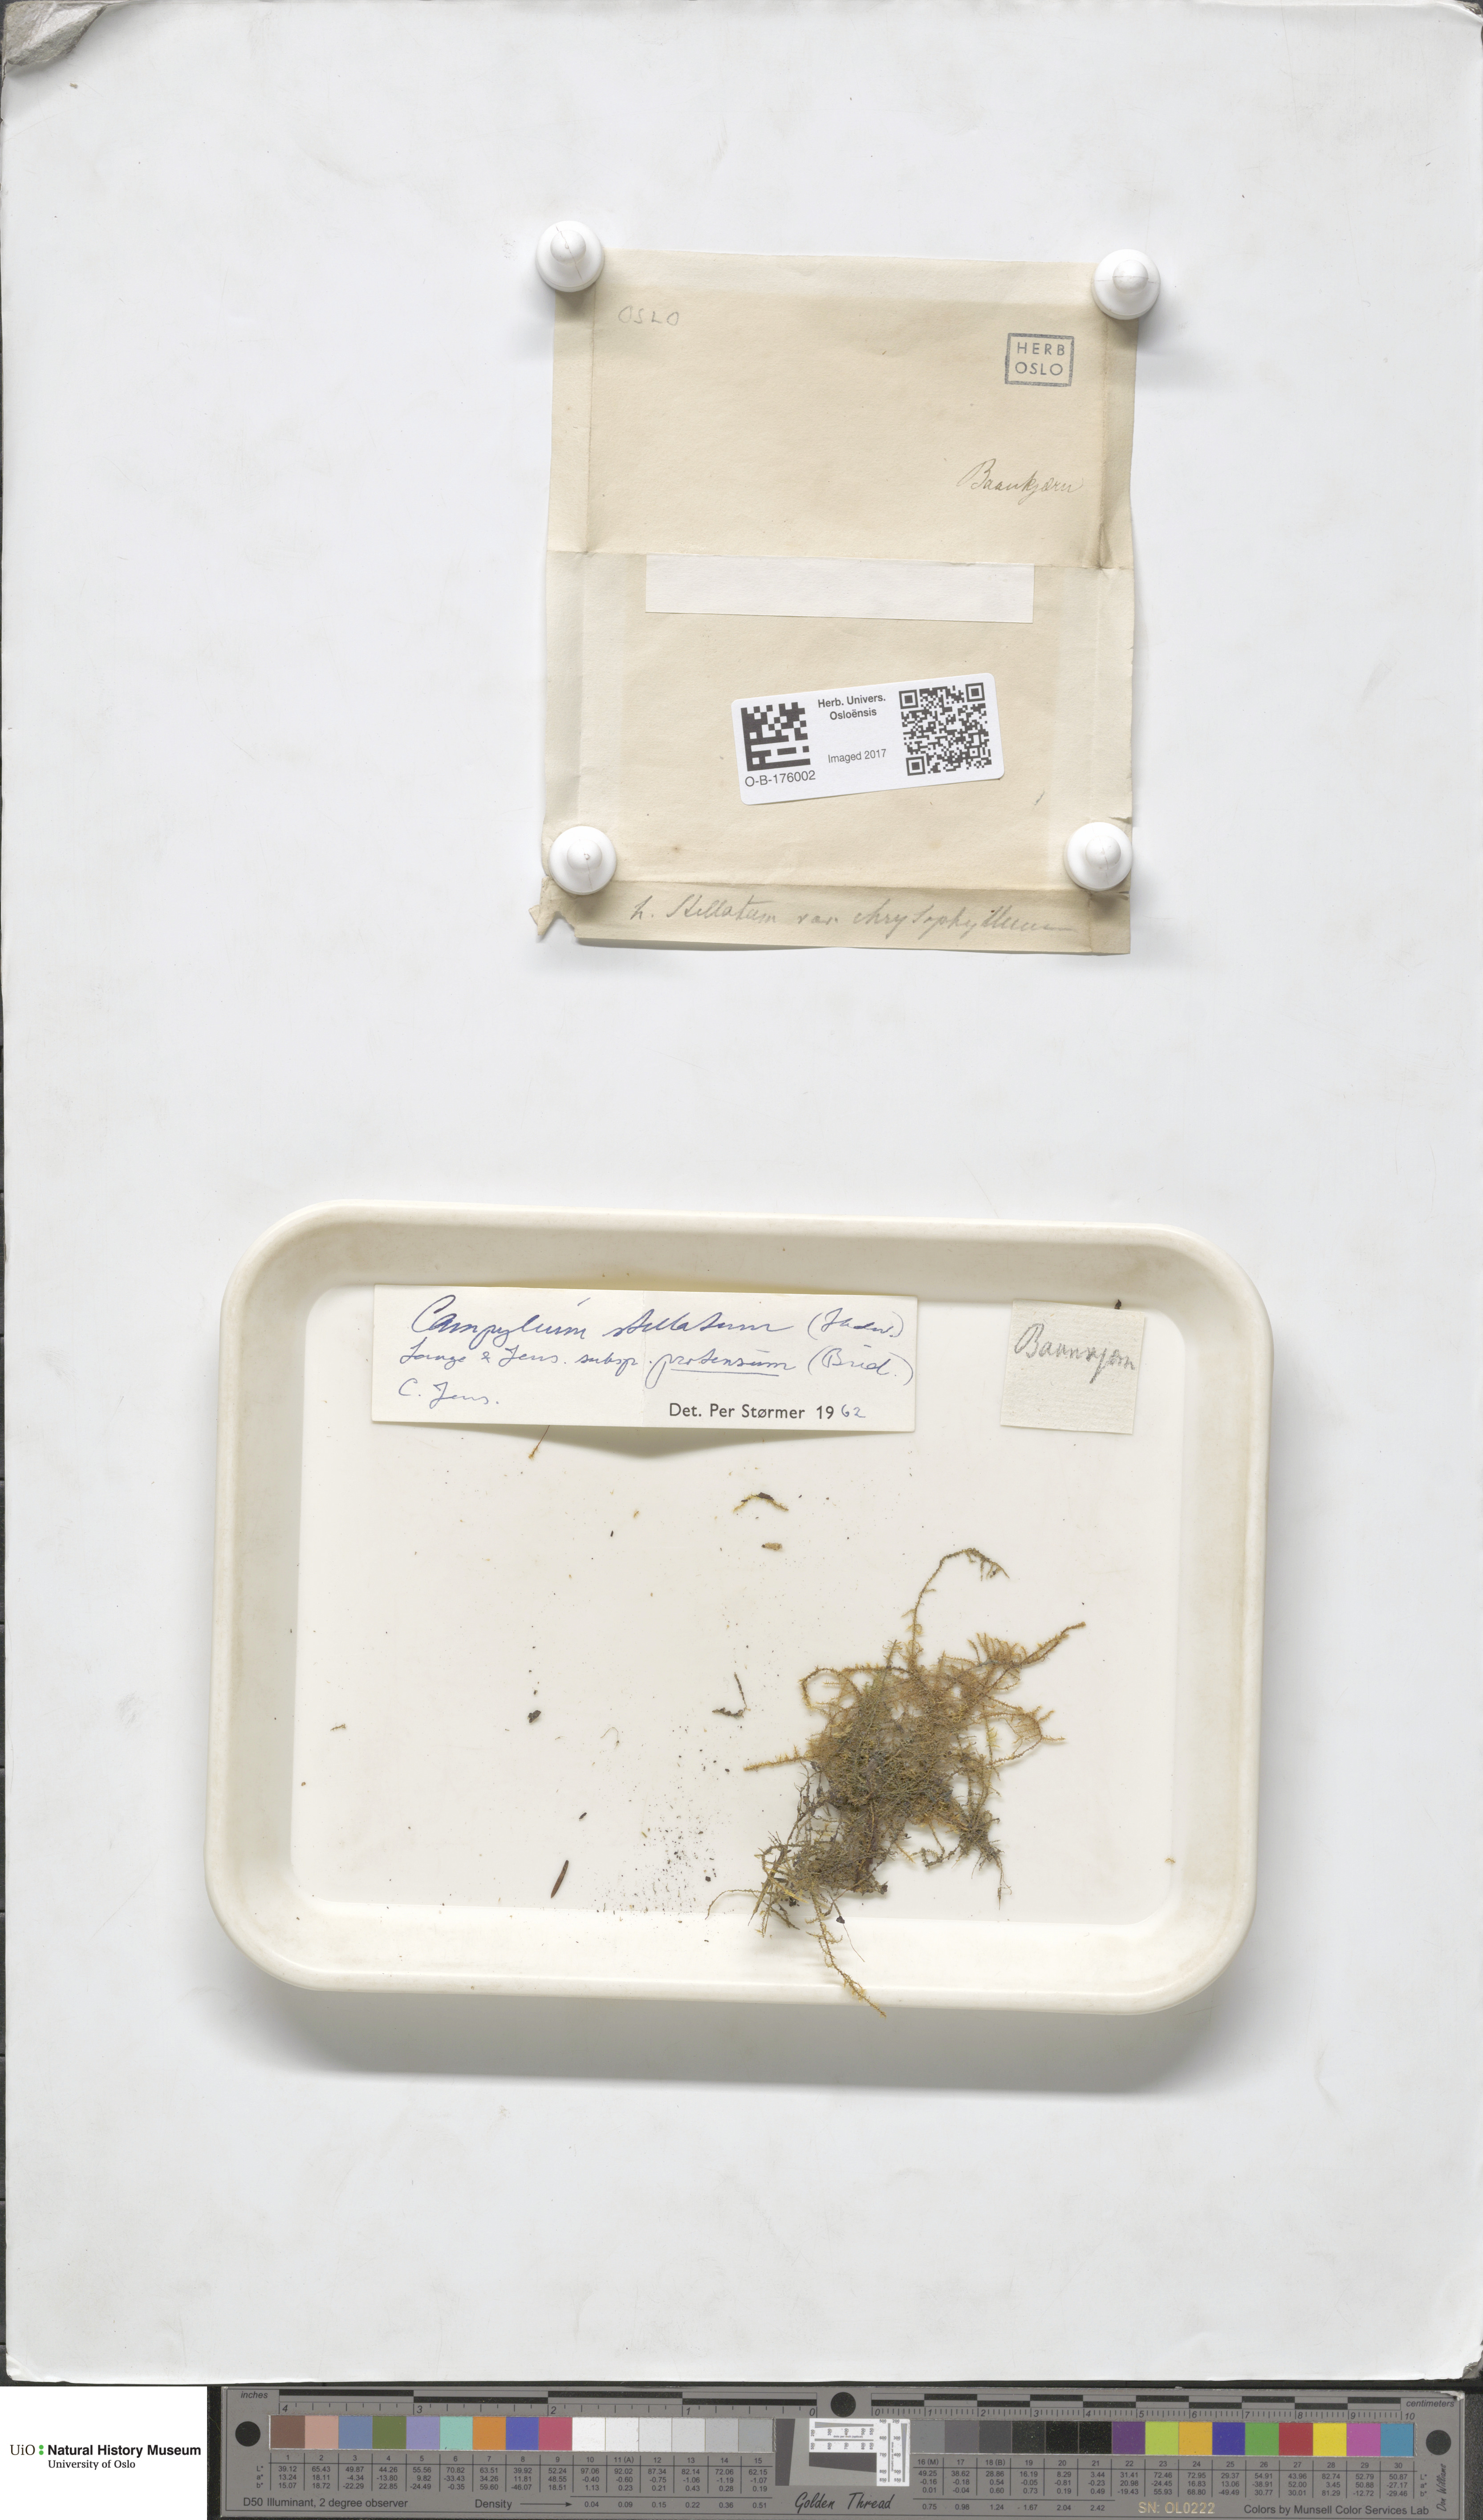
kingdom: Plantae
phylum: Bryophyta
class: Bryopsida
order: Hypnales
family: Amblystegiaceae
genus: Campylium
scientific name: Campylium stellatum
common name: Yellow starry fen moss
